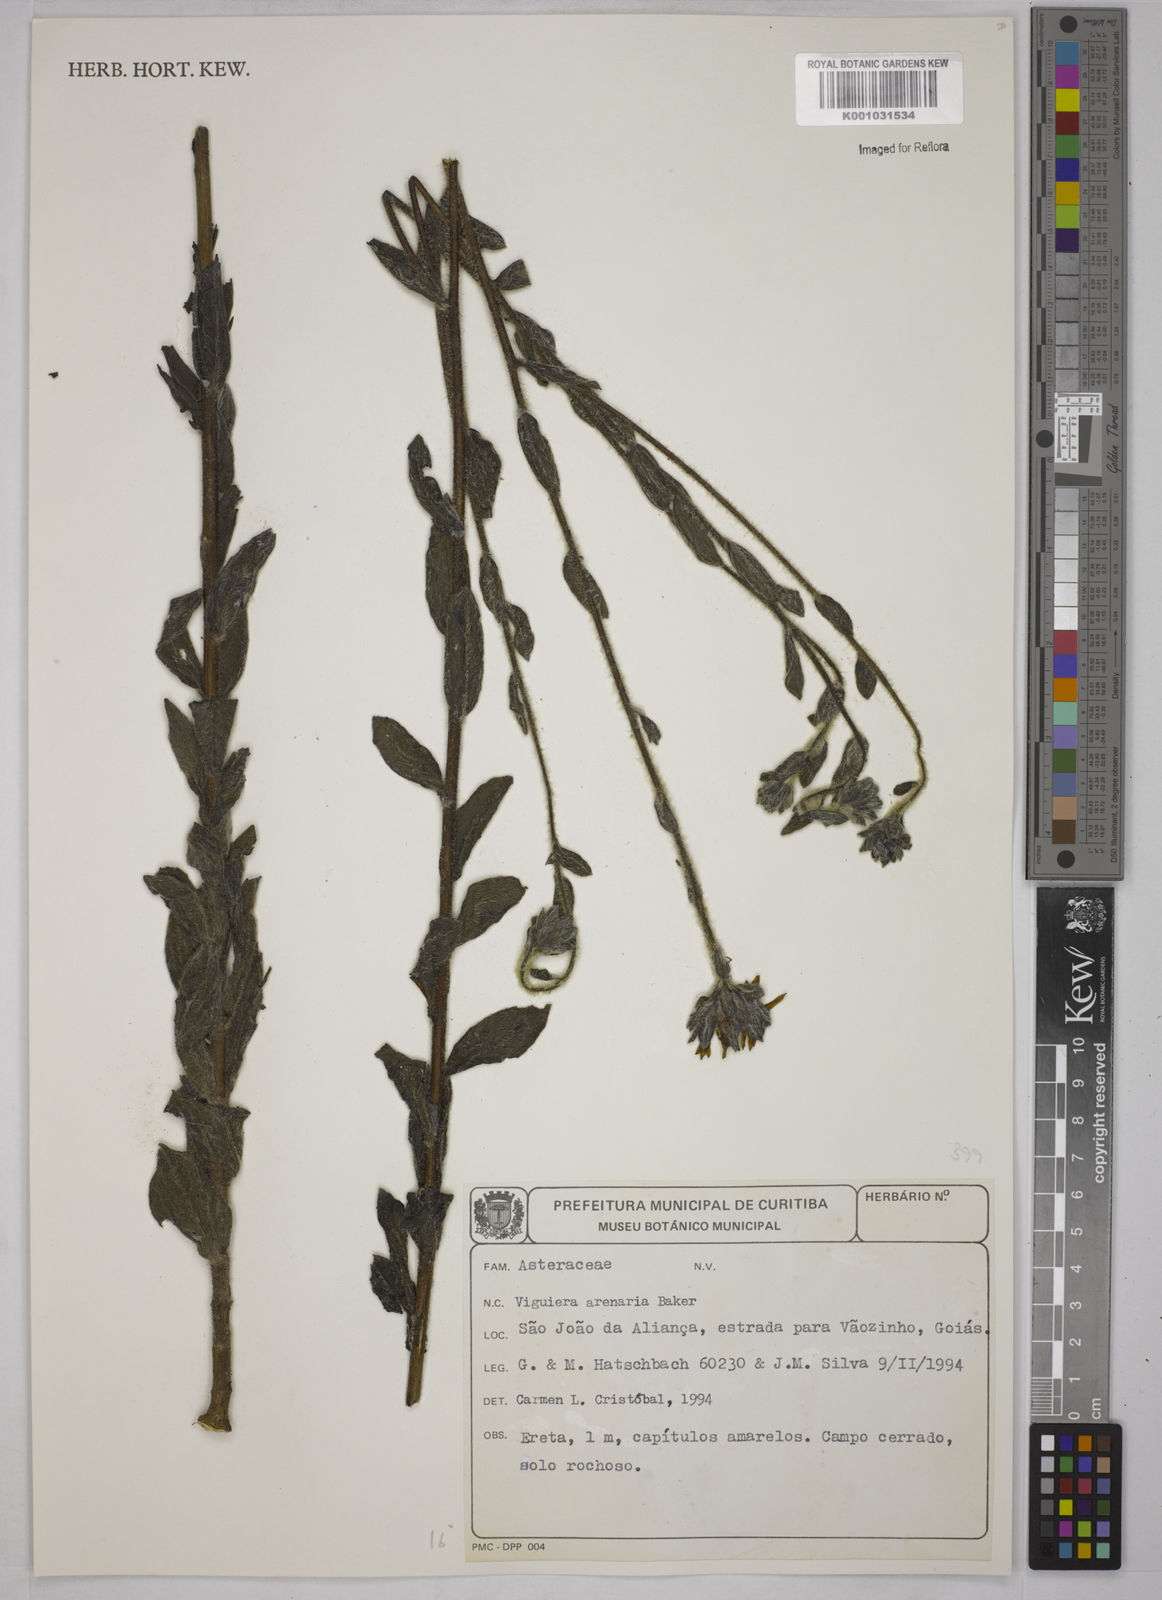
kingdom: Plantae
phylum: Tracheophyta
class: Magnoliopsida
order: Asterales
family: Asteraceae
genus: Viguiera
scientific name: Viguiera
